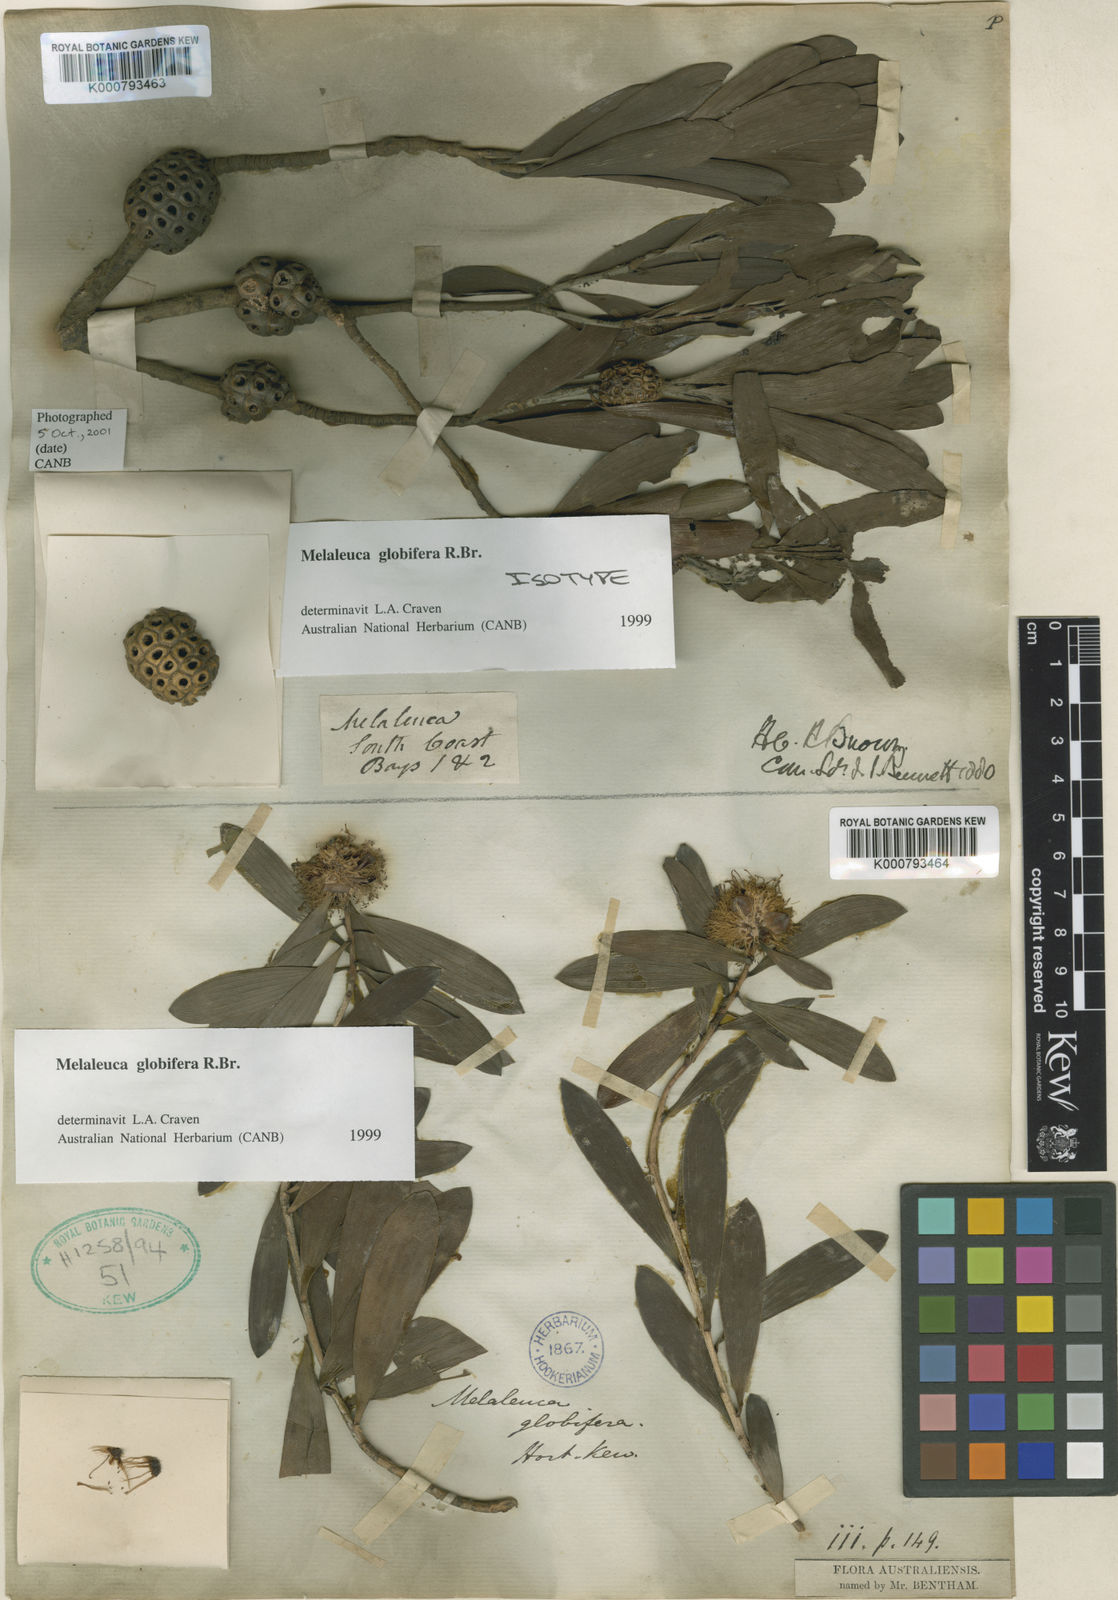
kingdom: Plantae
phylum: Tracheophyta
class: Magnoliopsida
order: Myrtales
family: Myrtaceae
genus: Melaleuca
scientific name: Melaleuca globifera
